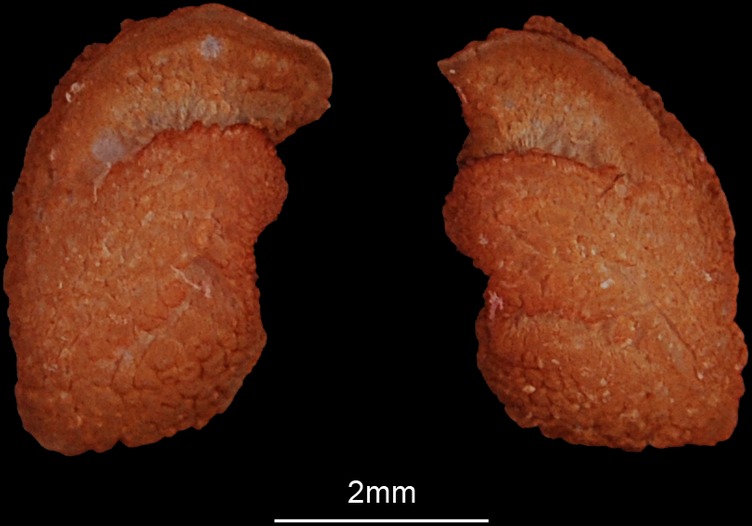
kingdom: Animalia
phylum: Chordata
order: Siluriformes
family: Clariidae
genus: Clarias
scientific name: Clarias gariepinus
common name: African catfish
